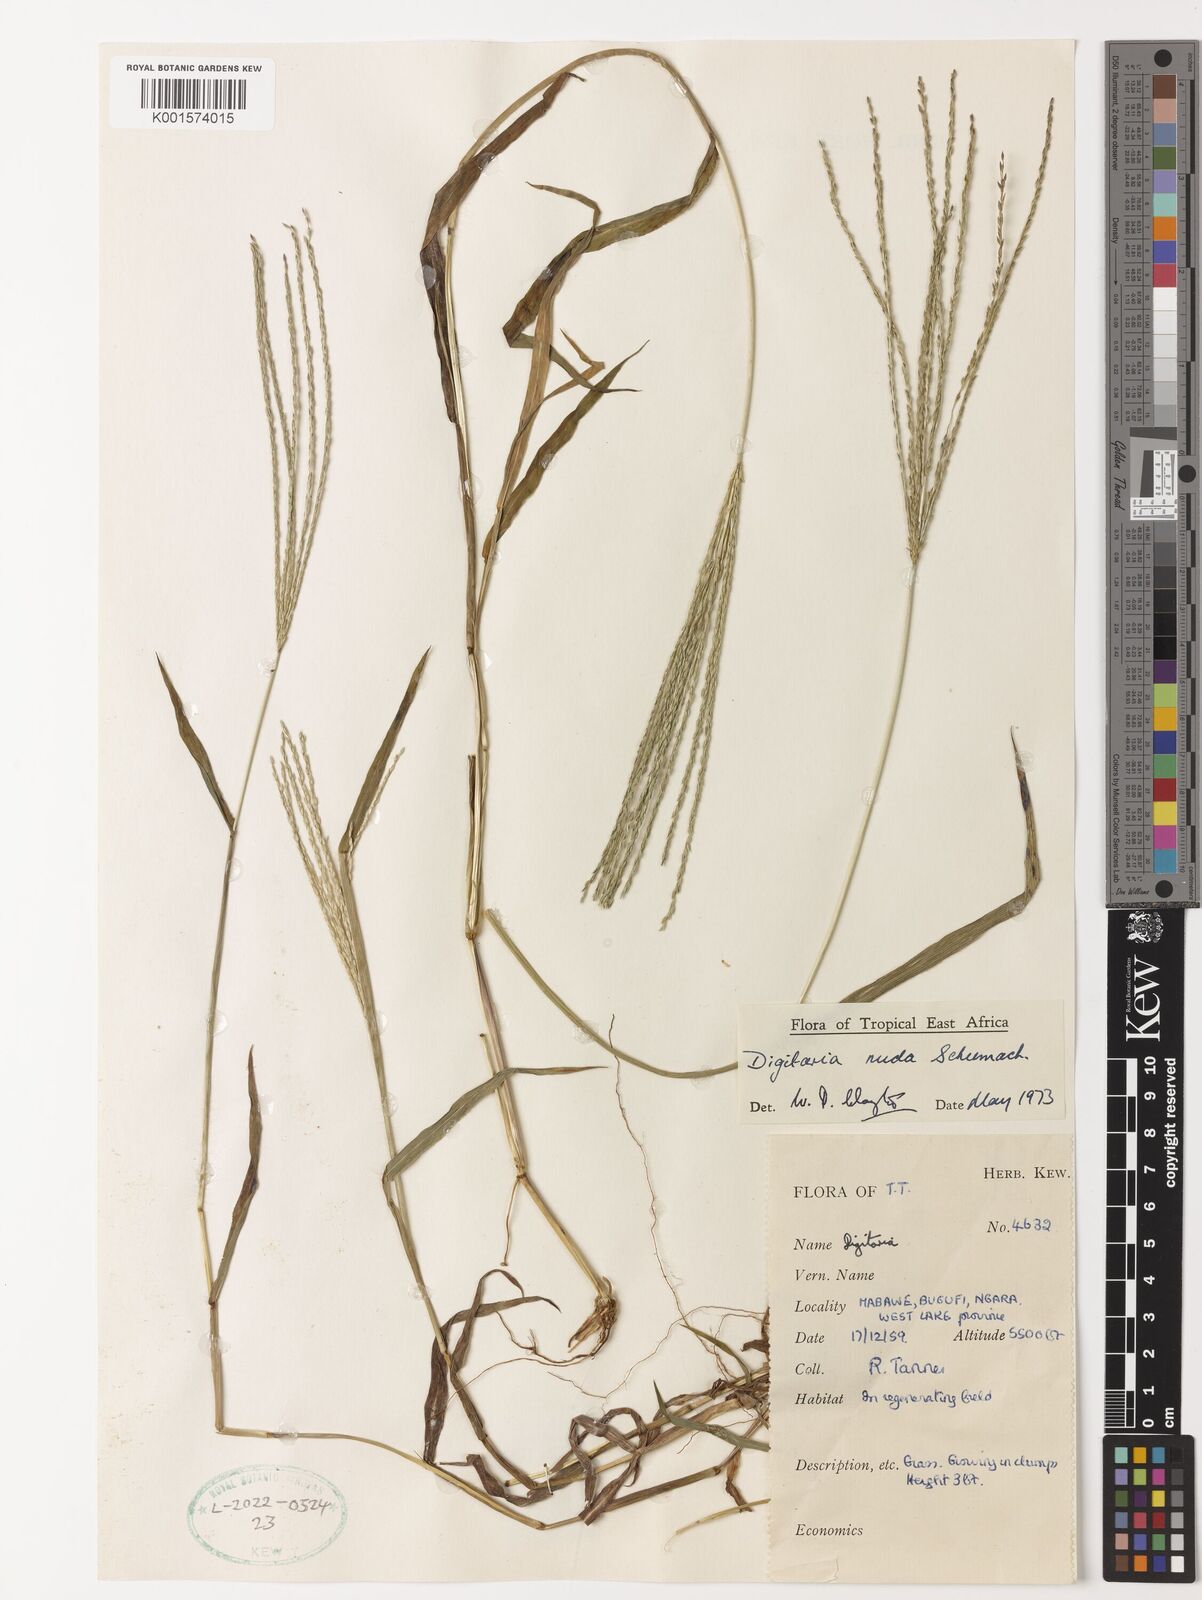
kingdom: Plantae
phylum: Tracheophyta
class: Liliopsida
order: Poales
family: Poaceae
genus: Digitaria
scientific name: Digitaria nuda
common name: Naked crabgrass
